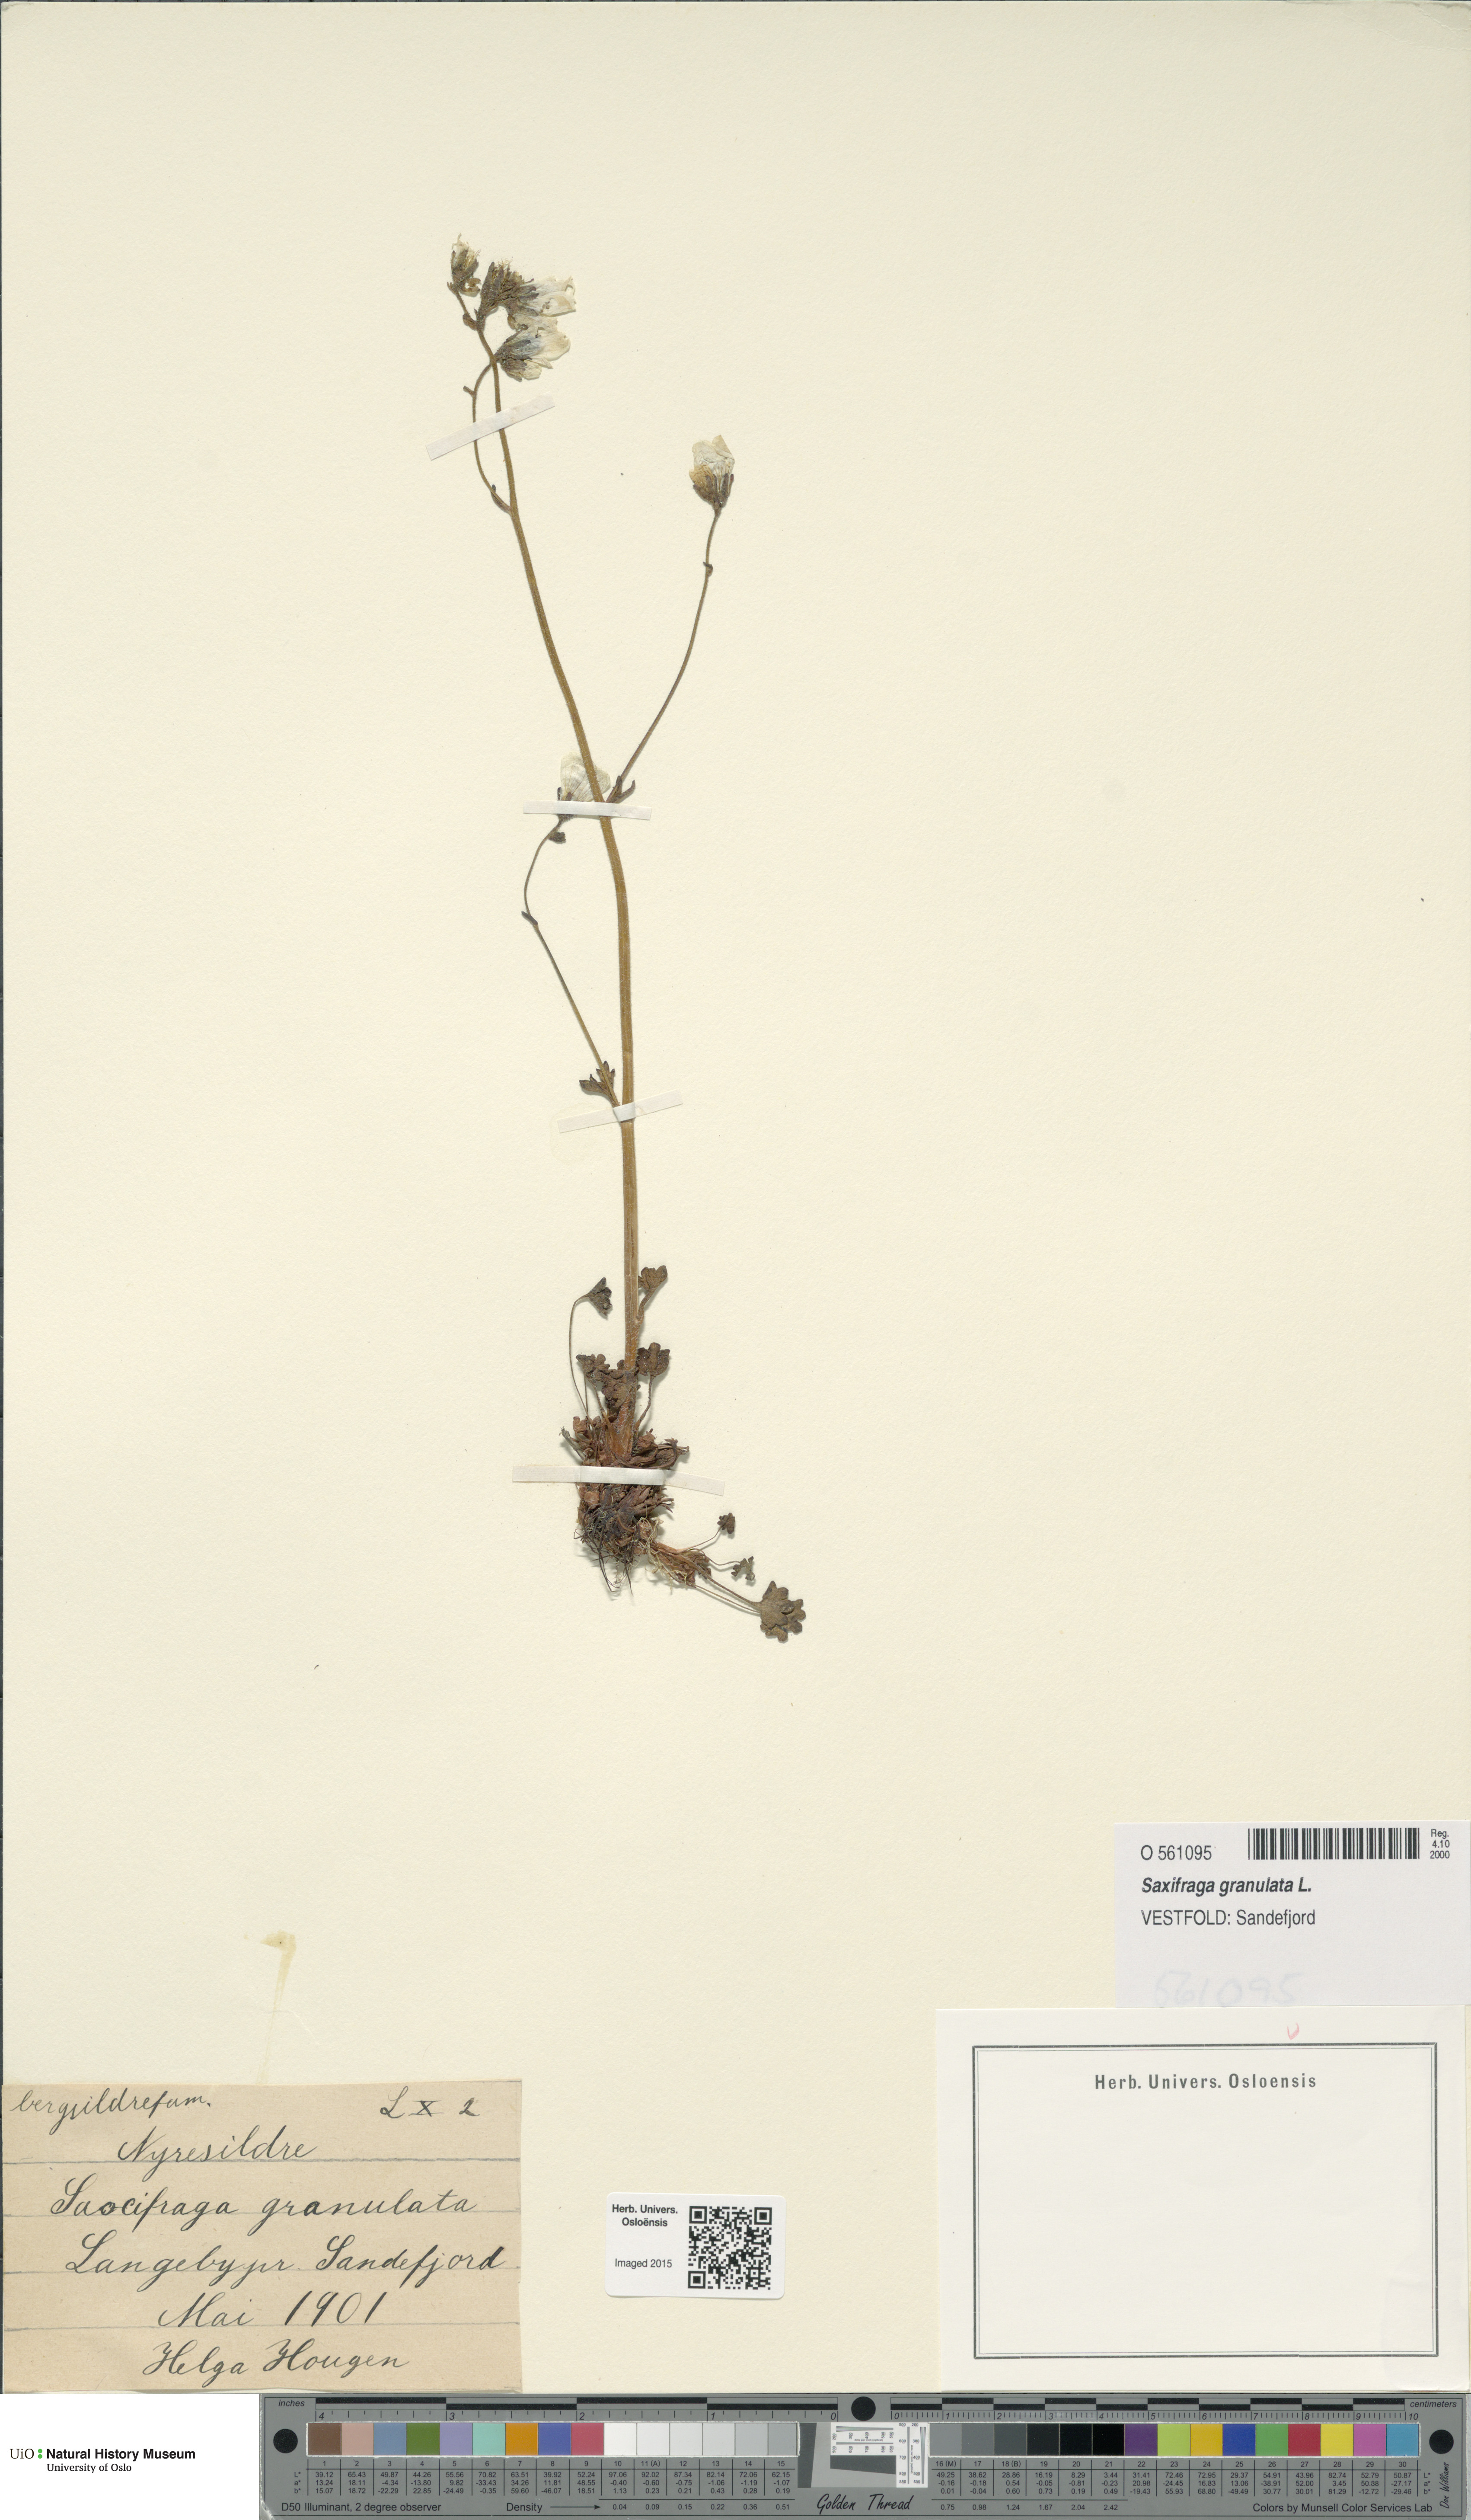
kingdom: Plantae
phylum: Tracheophyta
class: Magnoliopsida
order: Saxifragales
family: Saxifragaceae
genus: Saxifraga
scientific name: Saxifraga granulata
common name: Meadow saxifrage
